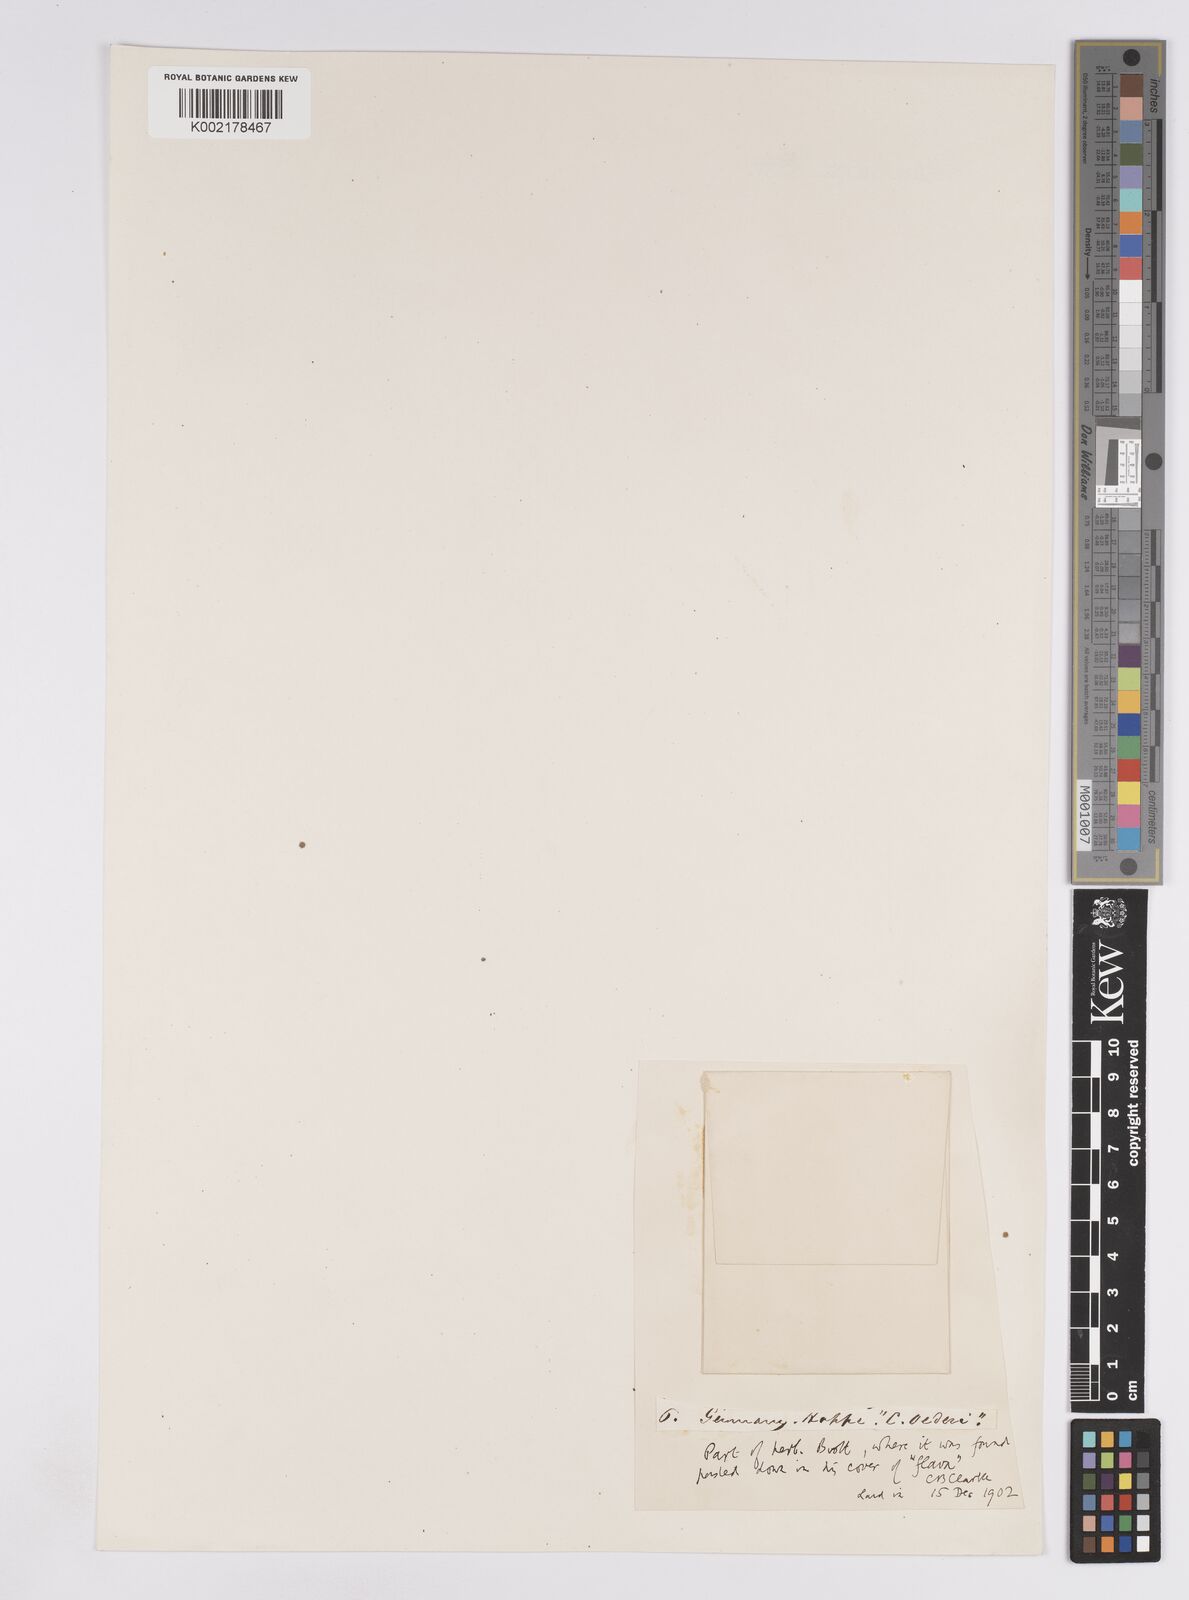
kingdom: Plantae
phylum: Tracheophyta
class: Liliopsida
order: Poales
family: Cyperaceae
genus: Carex
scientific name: Carex demissa
